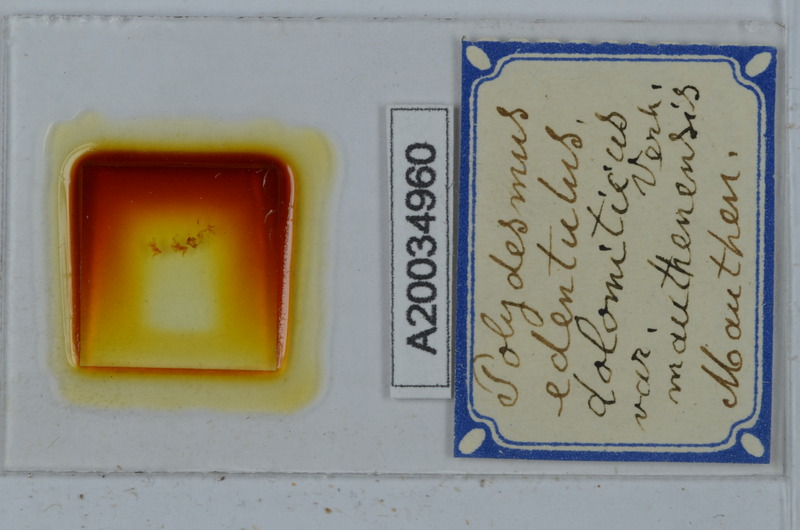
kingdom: Animalia
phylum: Arthropoda
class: Diplopoda
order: Polydesmida
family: Polydesmidae
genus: Polydesmus
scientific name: Polydesmus edentulus
